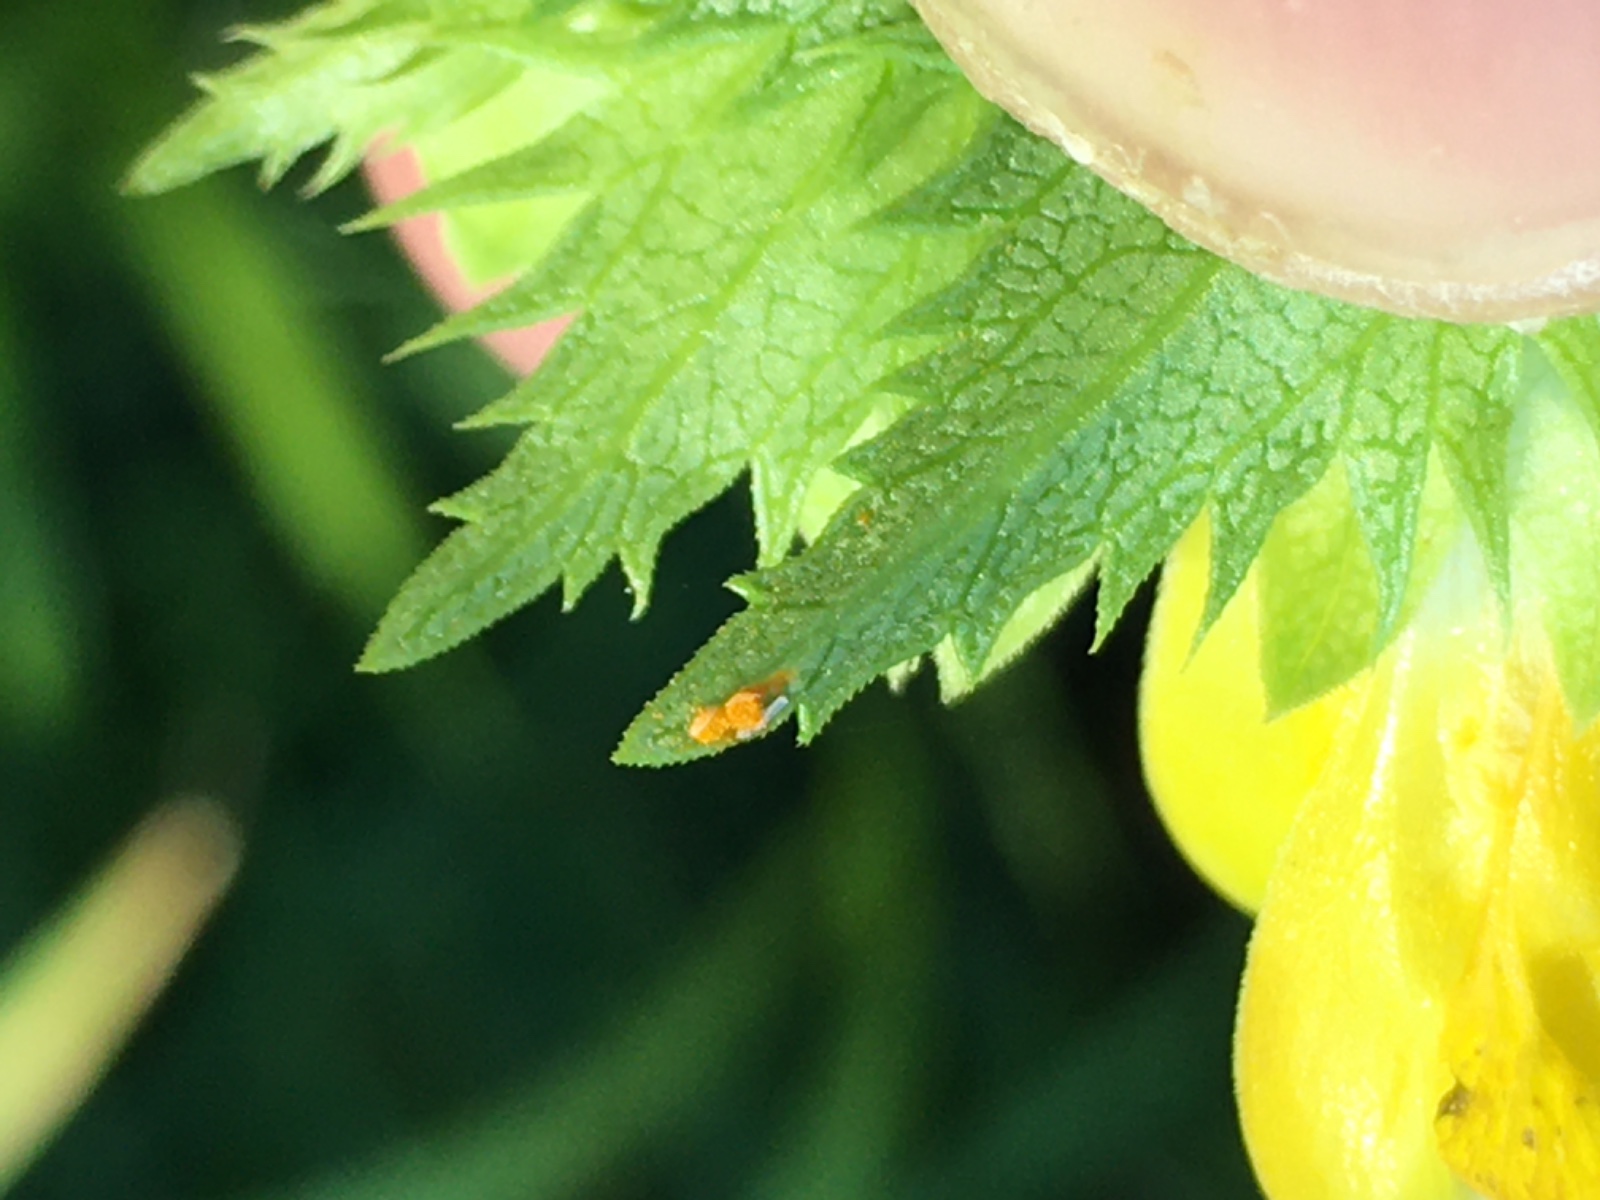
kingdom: Fungi
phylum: Basidiomycota
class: Pucciniomycetes
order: Pucciniales
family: Coleosporiaceae
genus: Coleosporium
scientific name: Coleosporium tussilaginis
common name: almindelig fyrrenålerust
